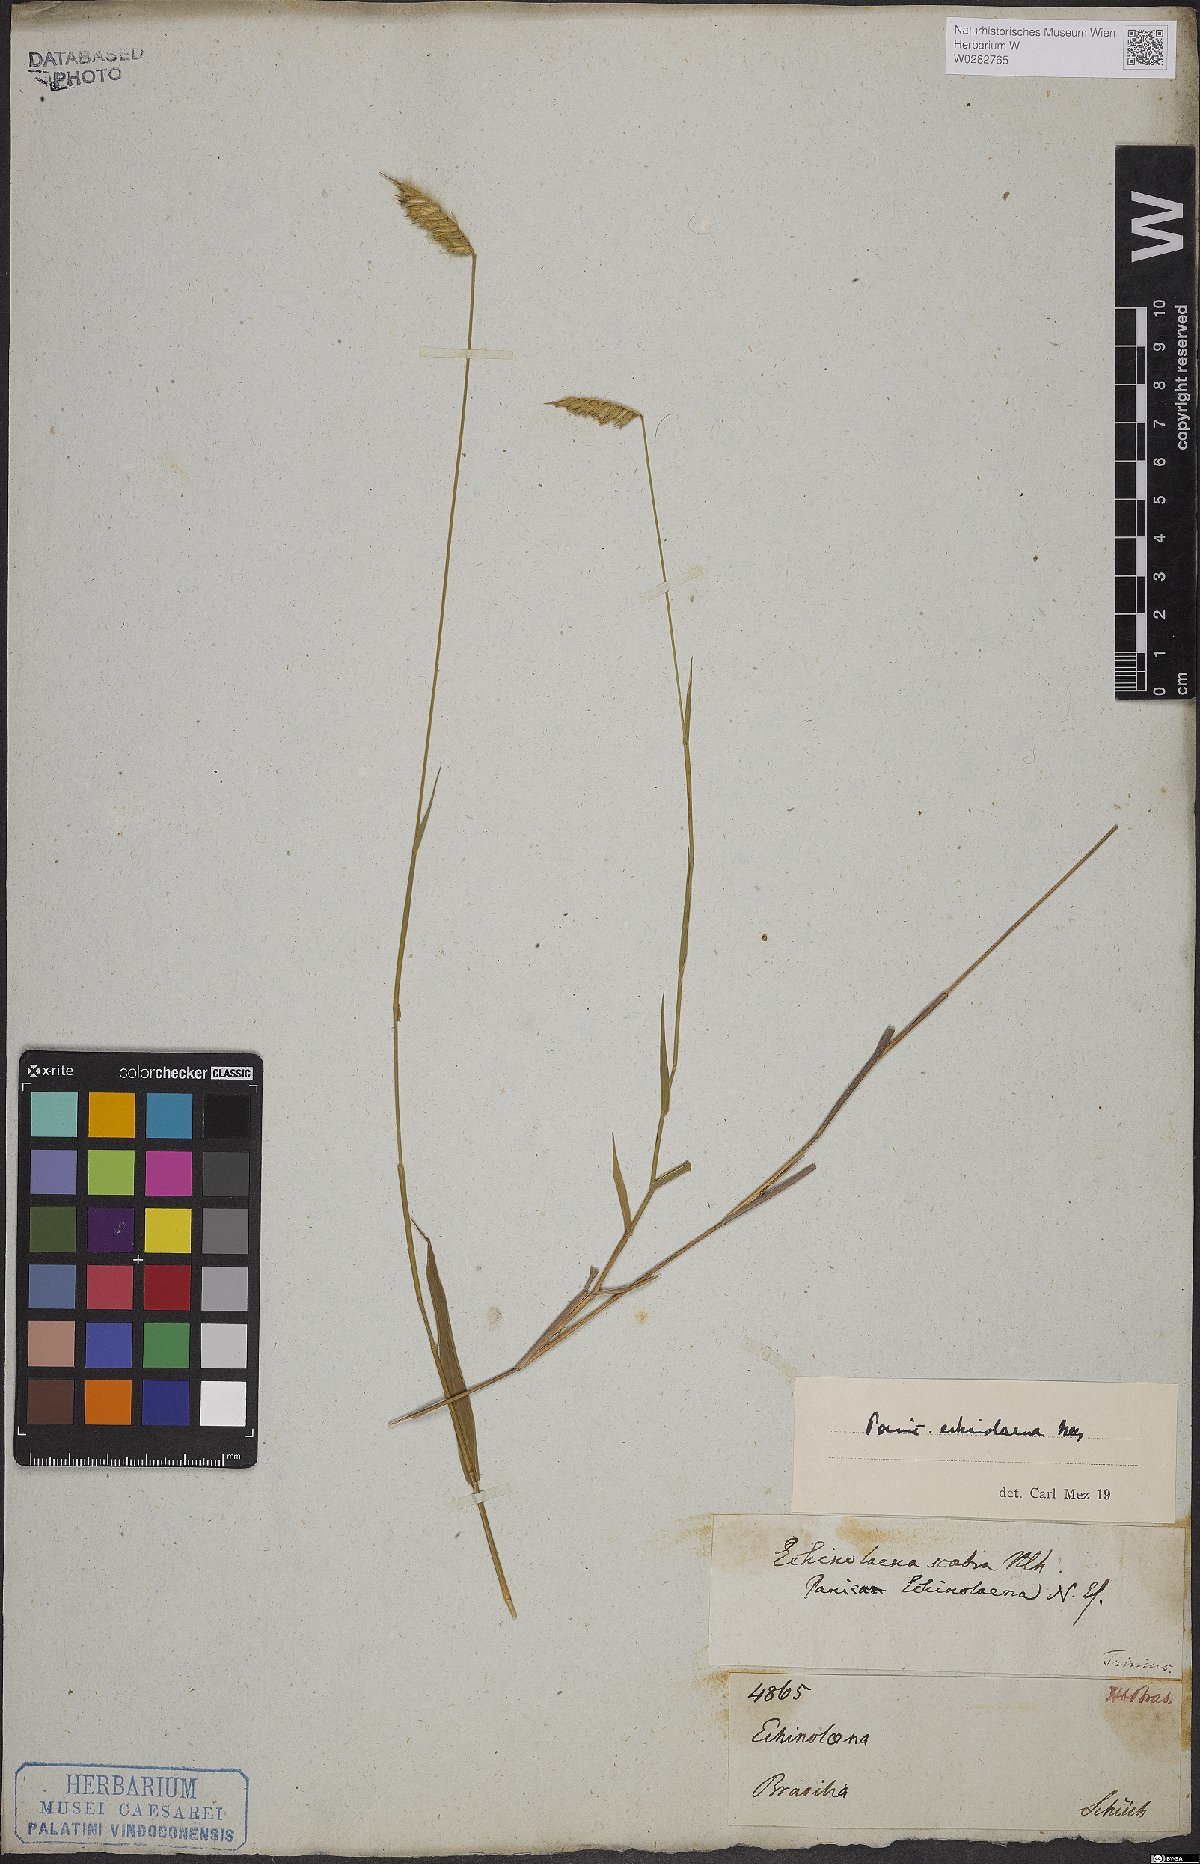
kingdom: Plantae
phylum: Tracheophyta
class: Liliopsida
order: Poales
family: Poaceae
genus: Echinolaena
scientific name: Echinolaena inflexa
